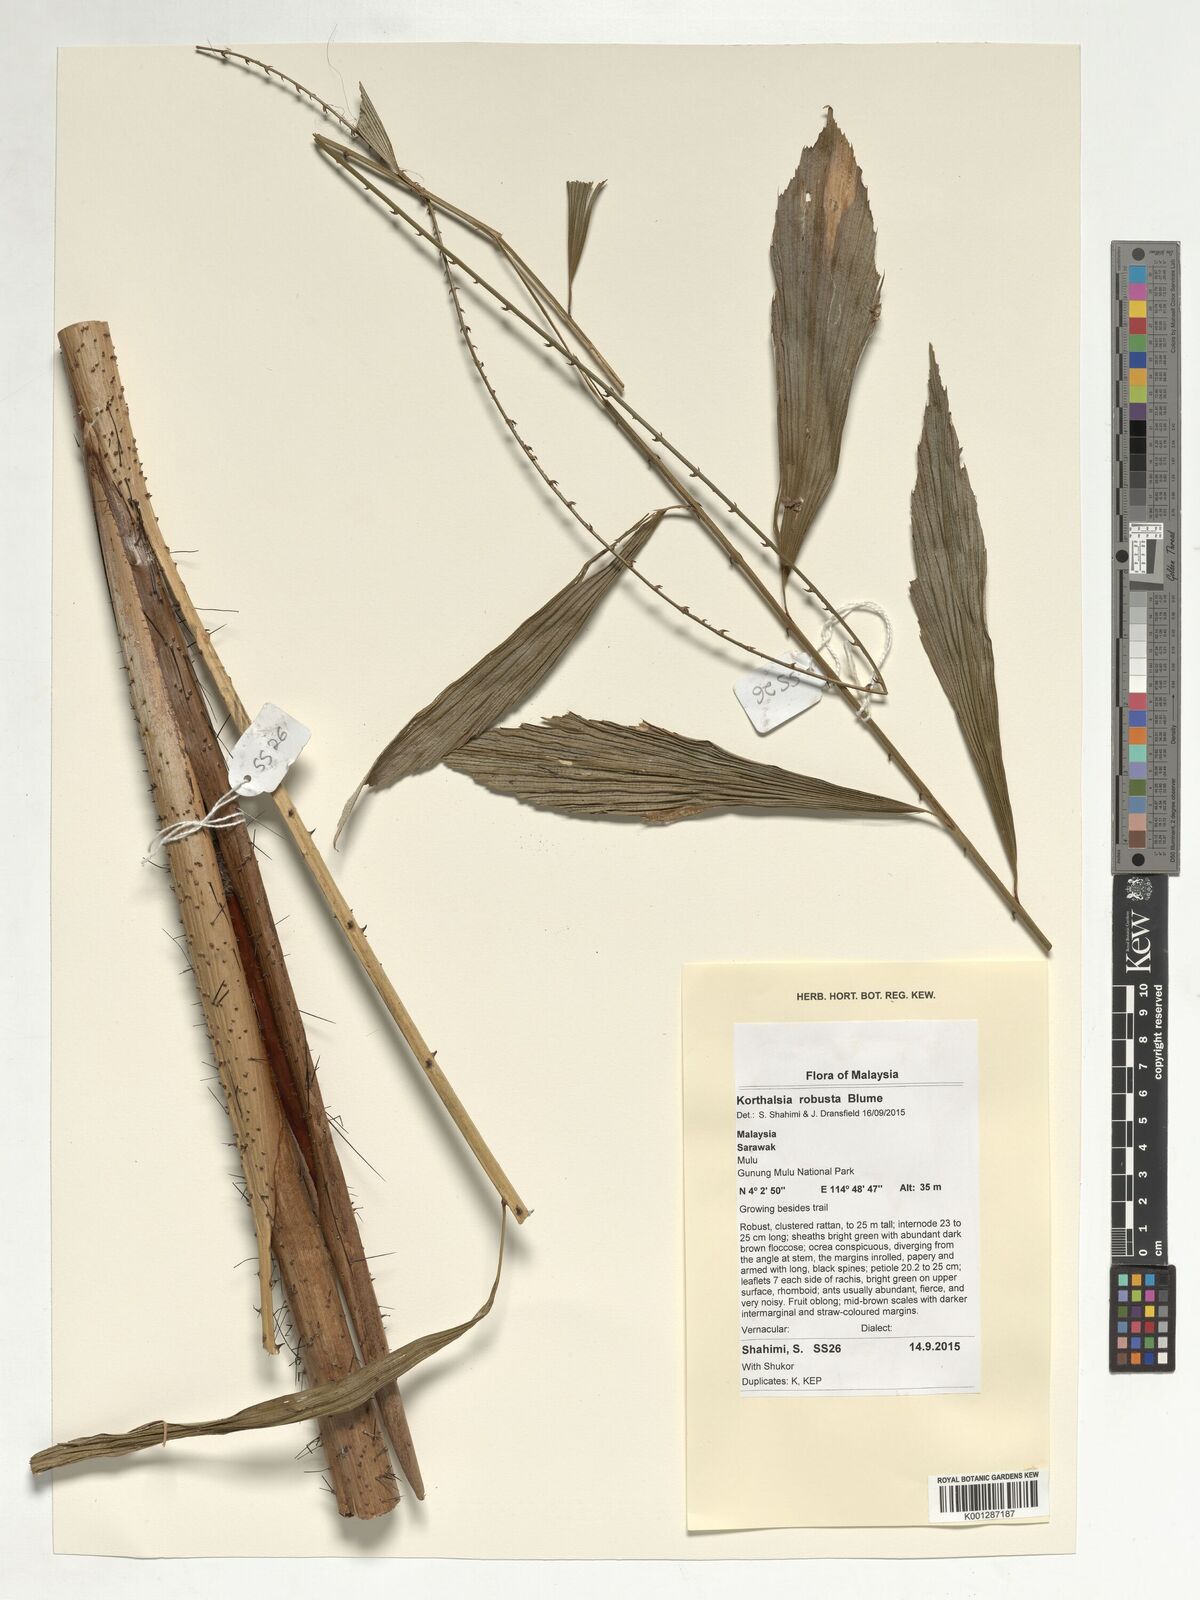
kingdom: Plantae
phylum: Tracheophyta
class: Liliopsida
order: Arecales
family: Arecaceae
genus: Korthalsia
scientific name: Korthalsia robusta
